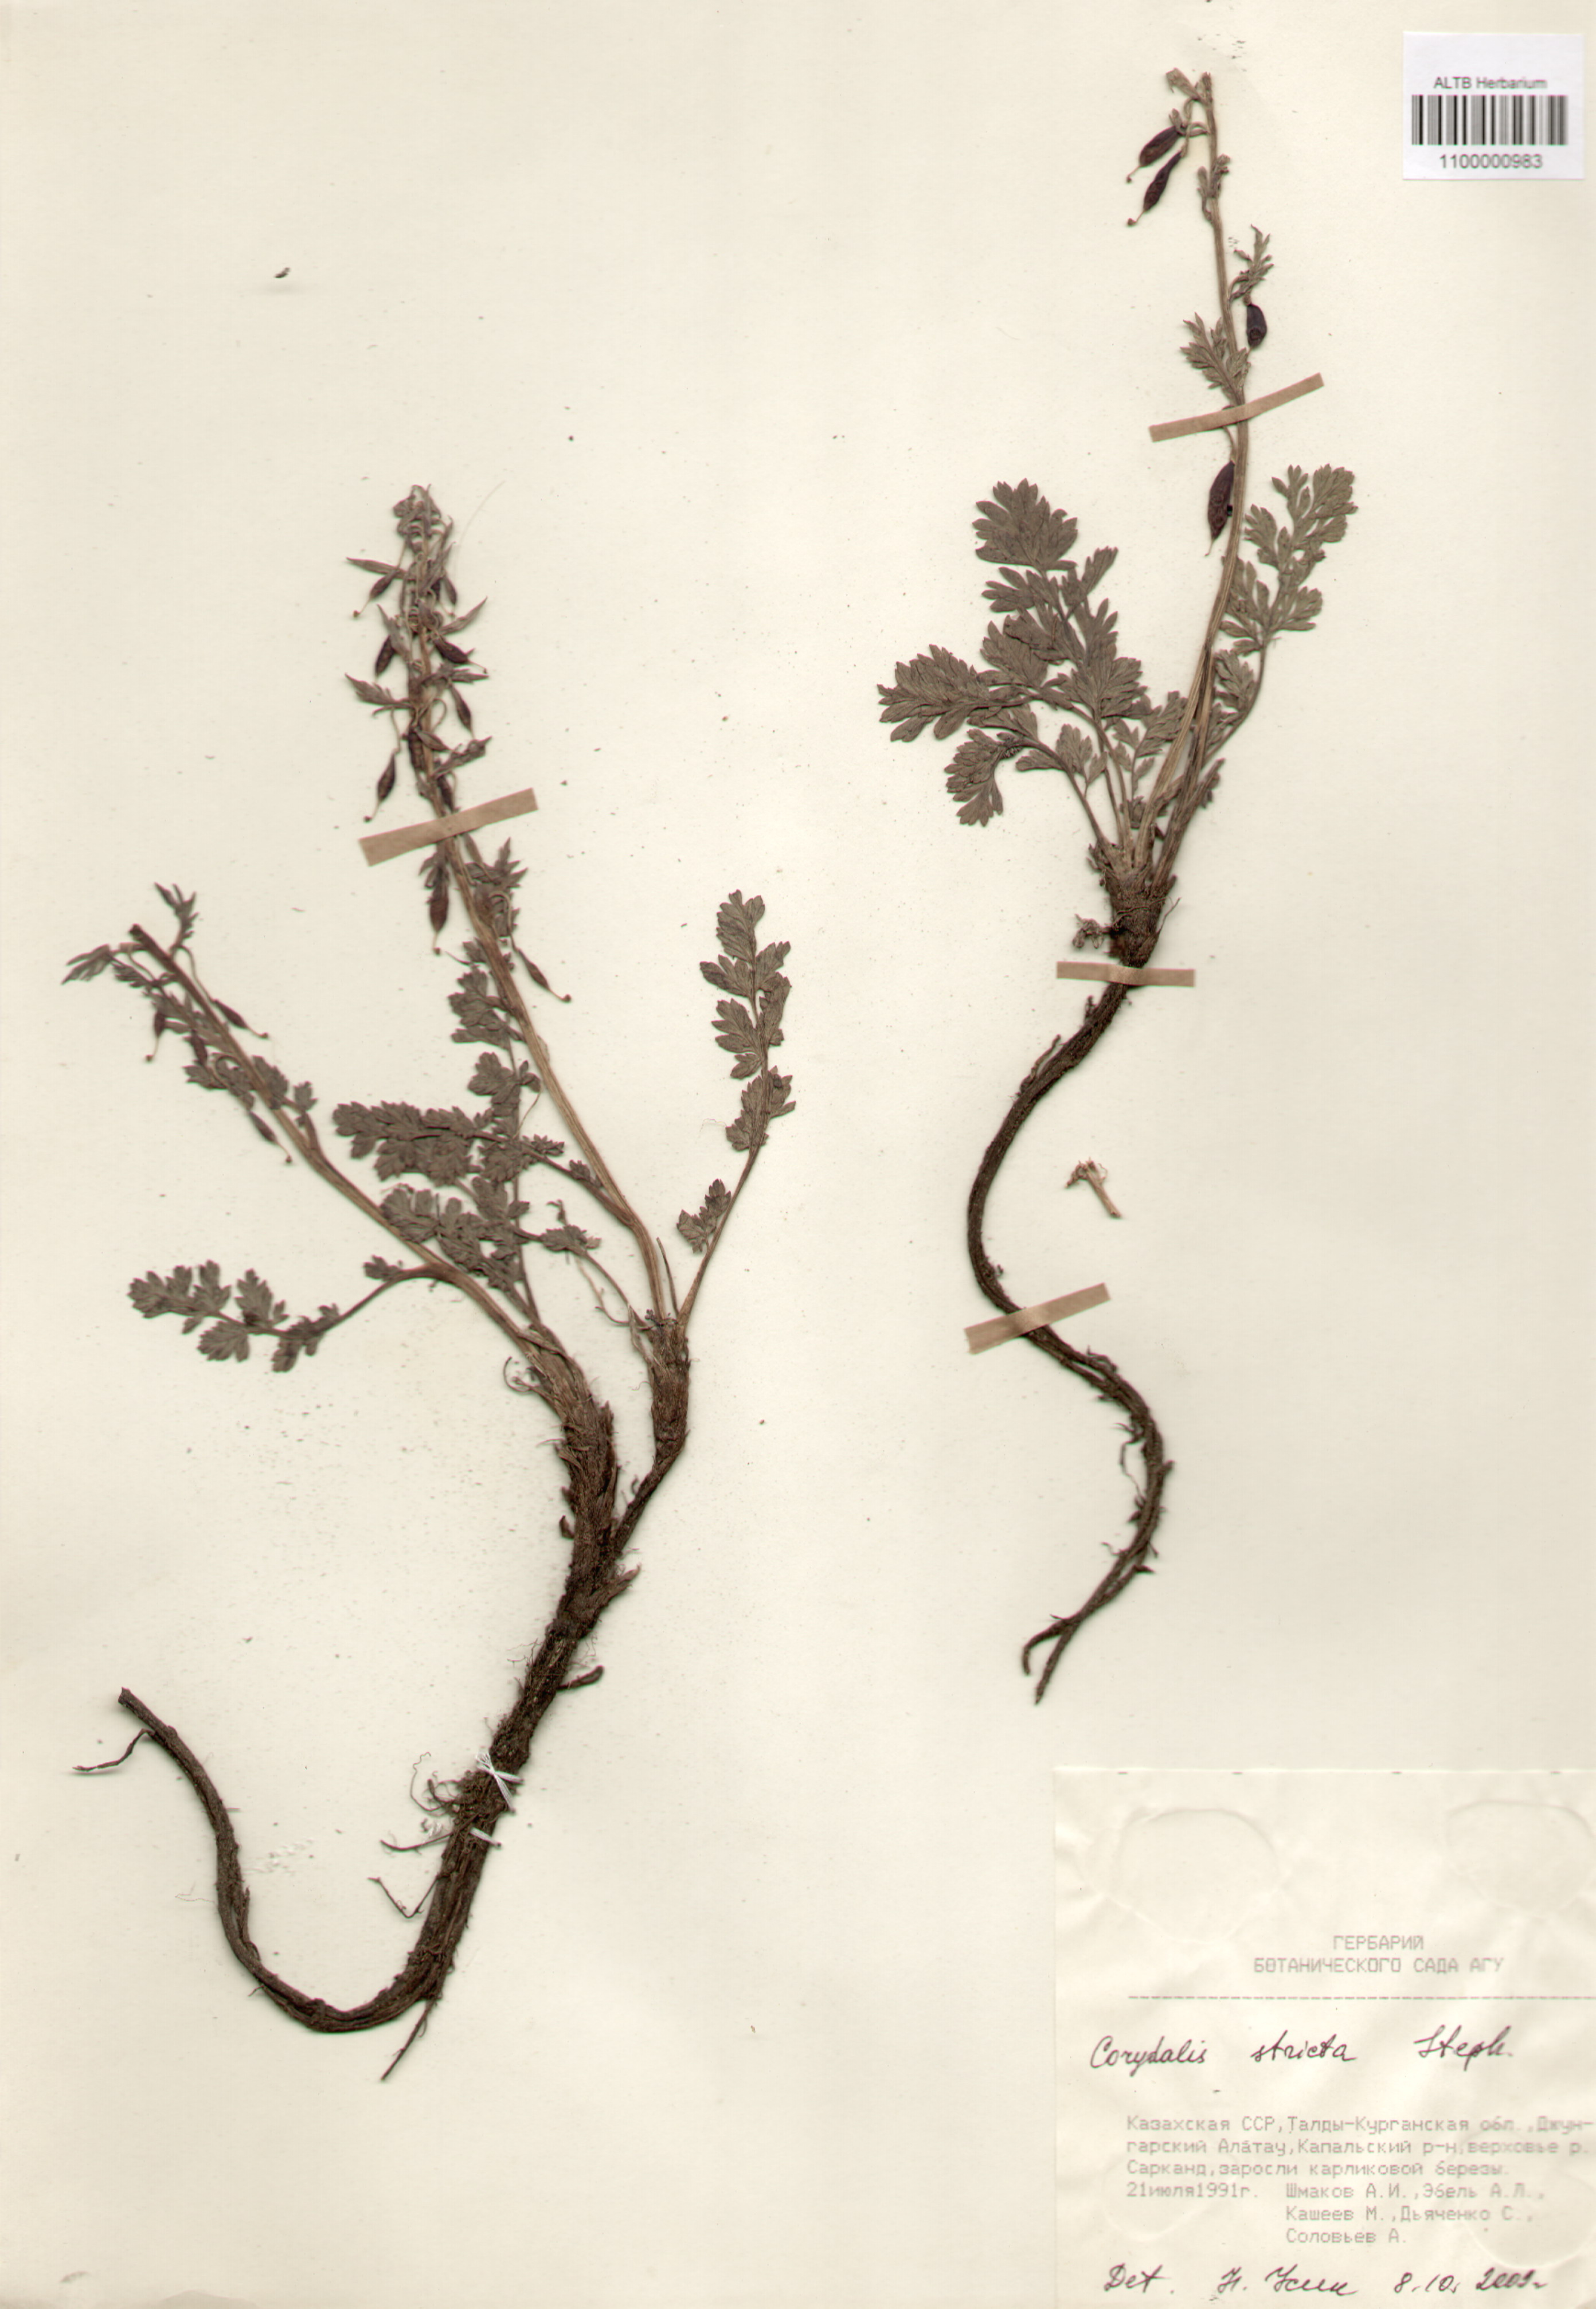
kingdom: Plantae
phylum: Tracheophyta
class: Magnoliopsida
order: Ranunculales
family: Papaveraceae
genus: Corydalis
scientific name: Corydalis stricta
